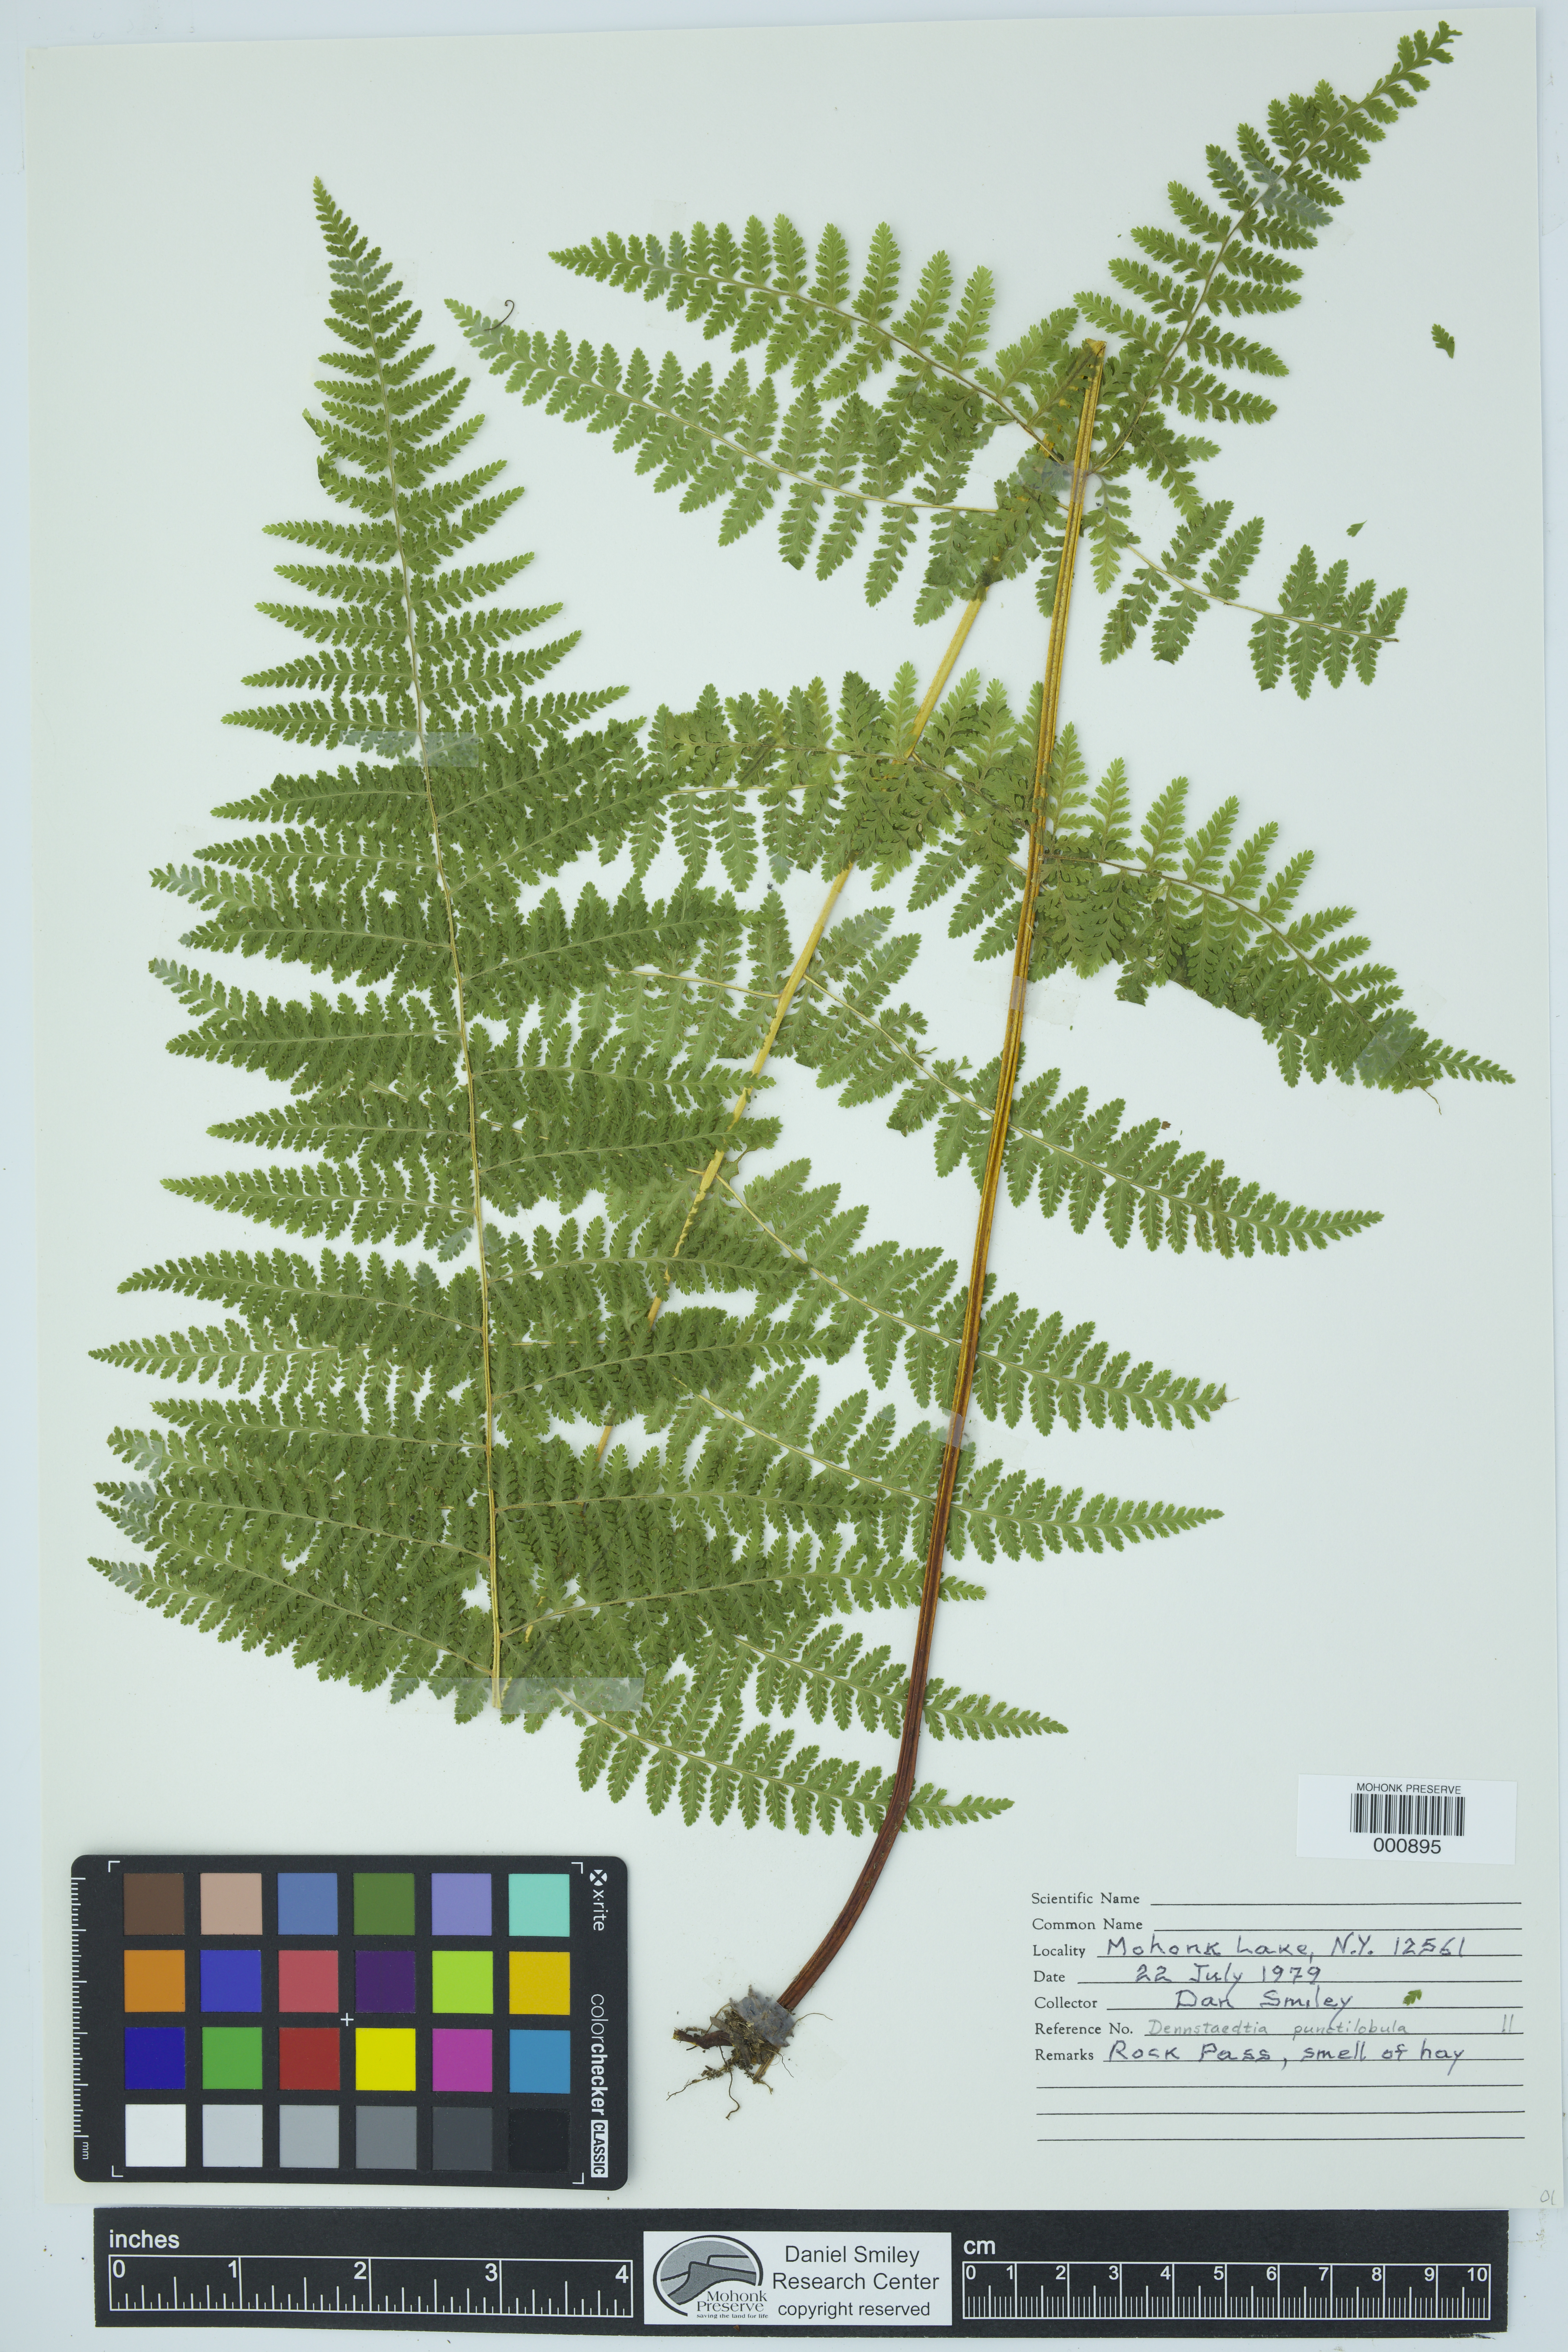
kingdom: Plantae
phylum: Tracheophyta
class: Polypodiopsida
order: Polypodiales
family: Dennstaedtiaceae
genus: Sitobolium
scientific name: Sitobolium punctilobum
